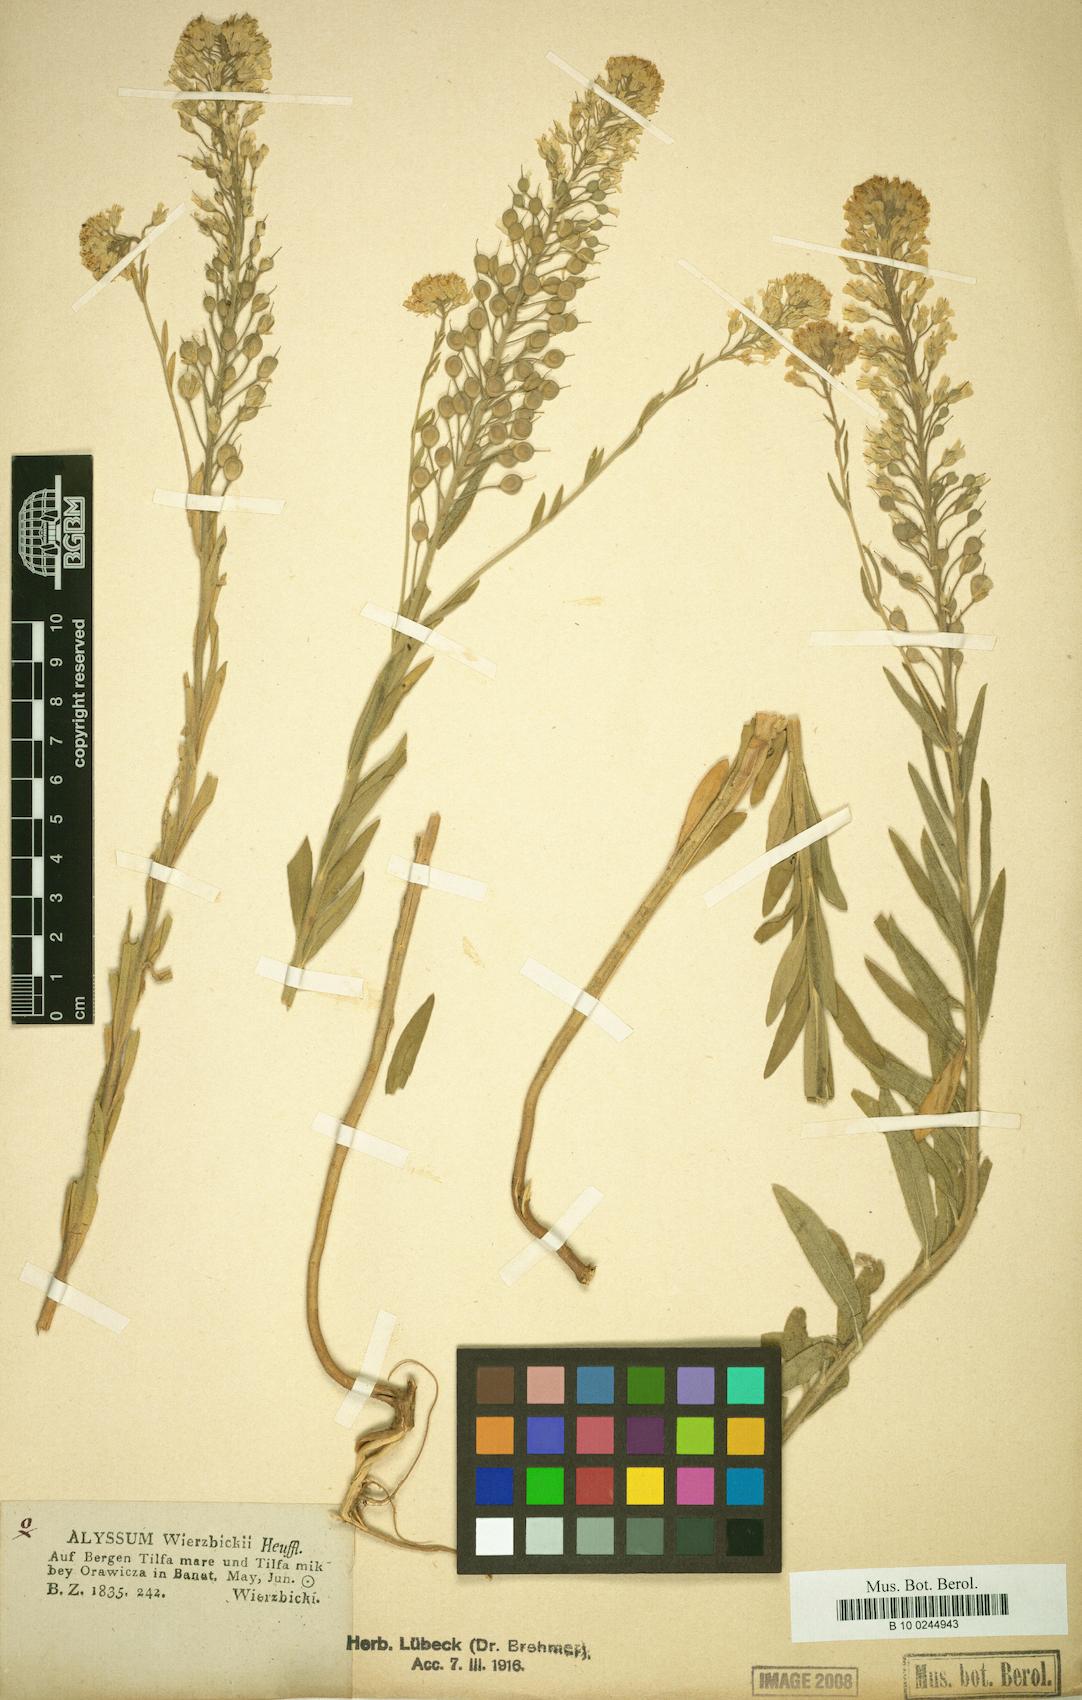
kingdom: Plantae
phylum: Tracheophyta
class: Magnoliopsida
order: Brassicales
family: Brassicaceae
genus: Alyssum
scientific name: Alyssum wierzbickii
